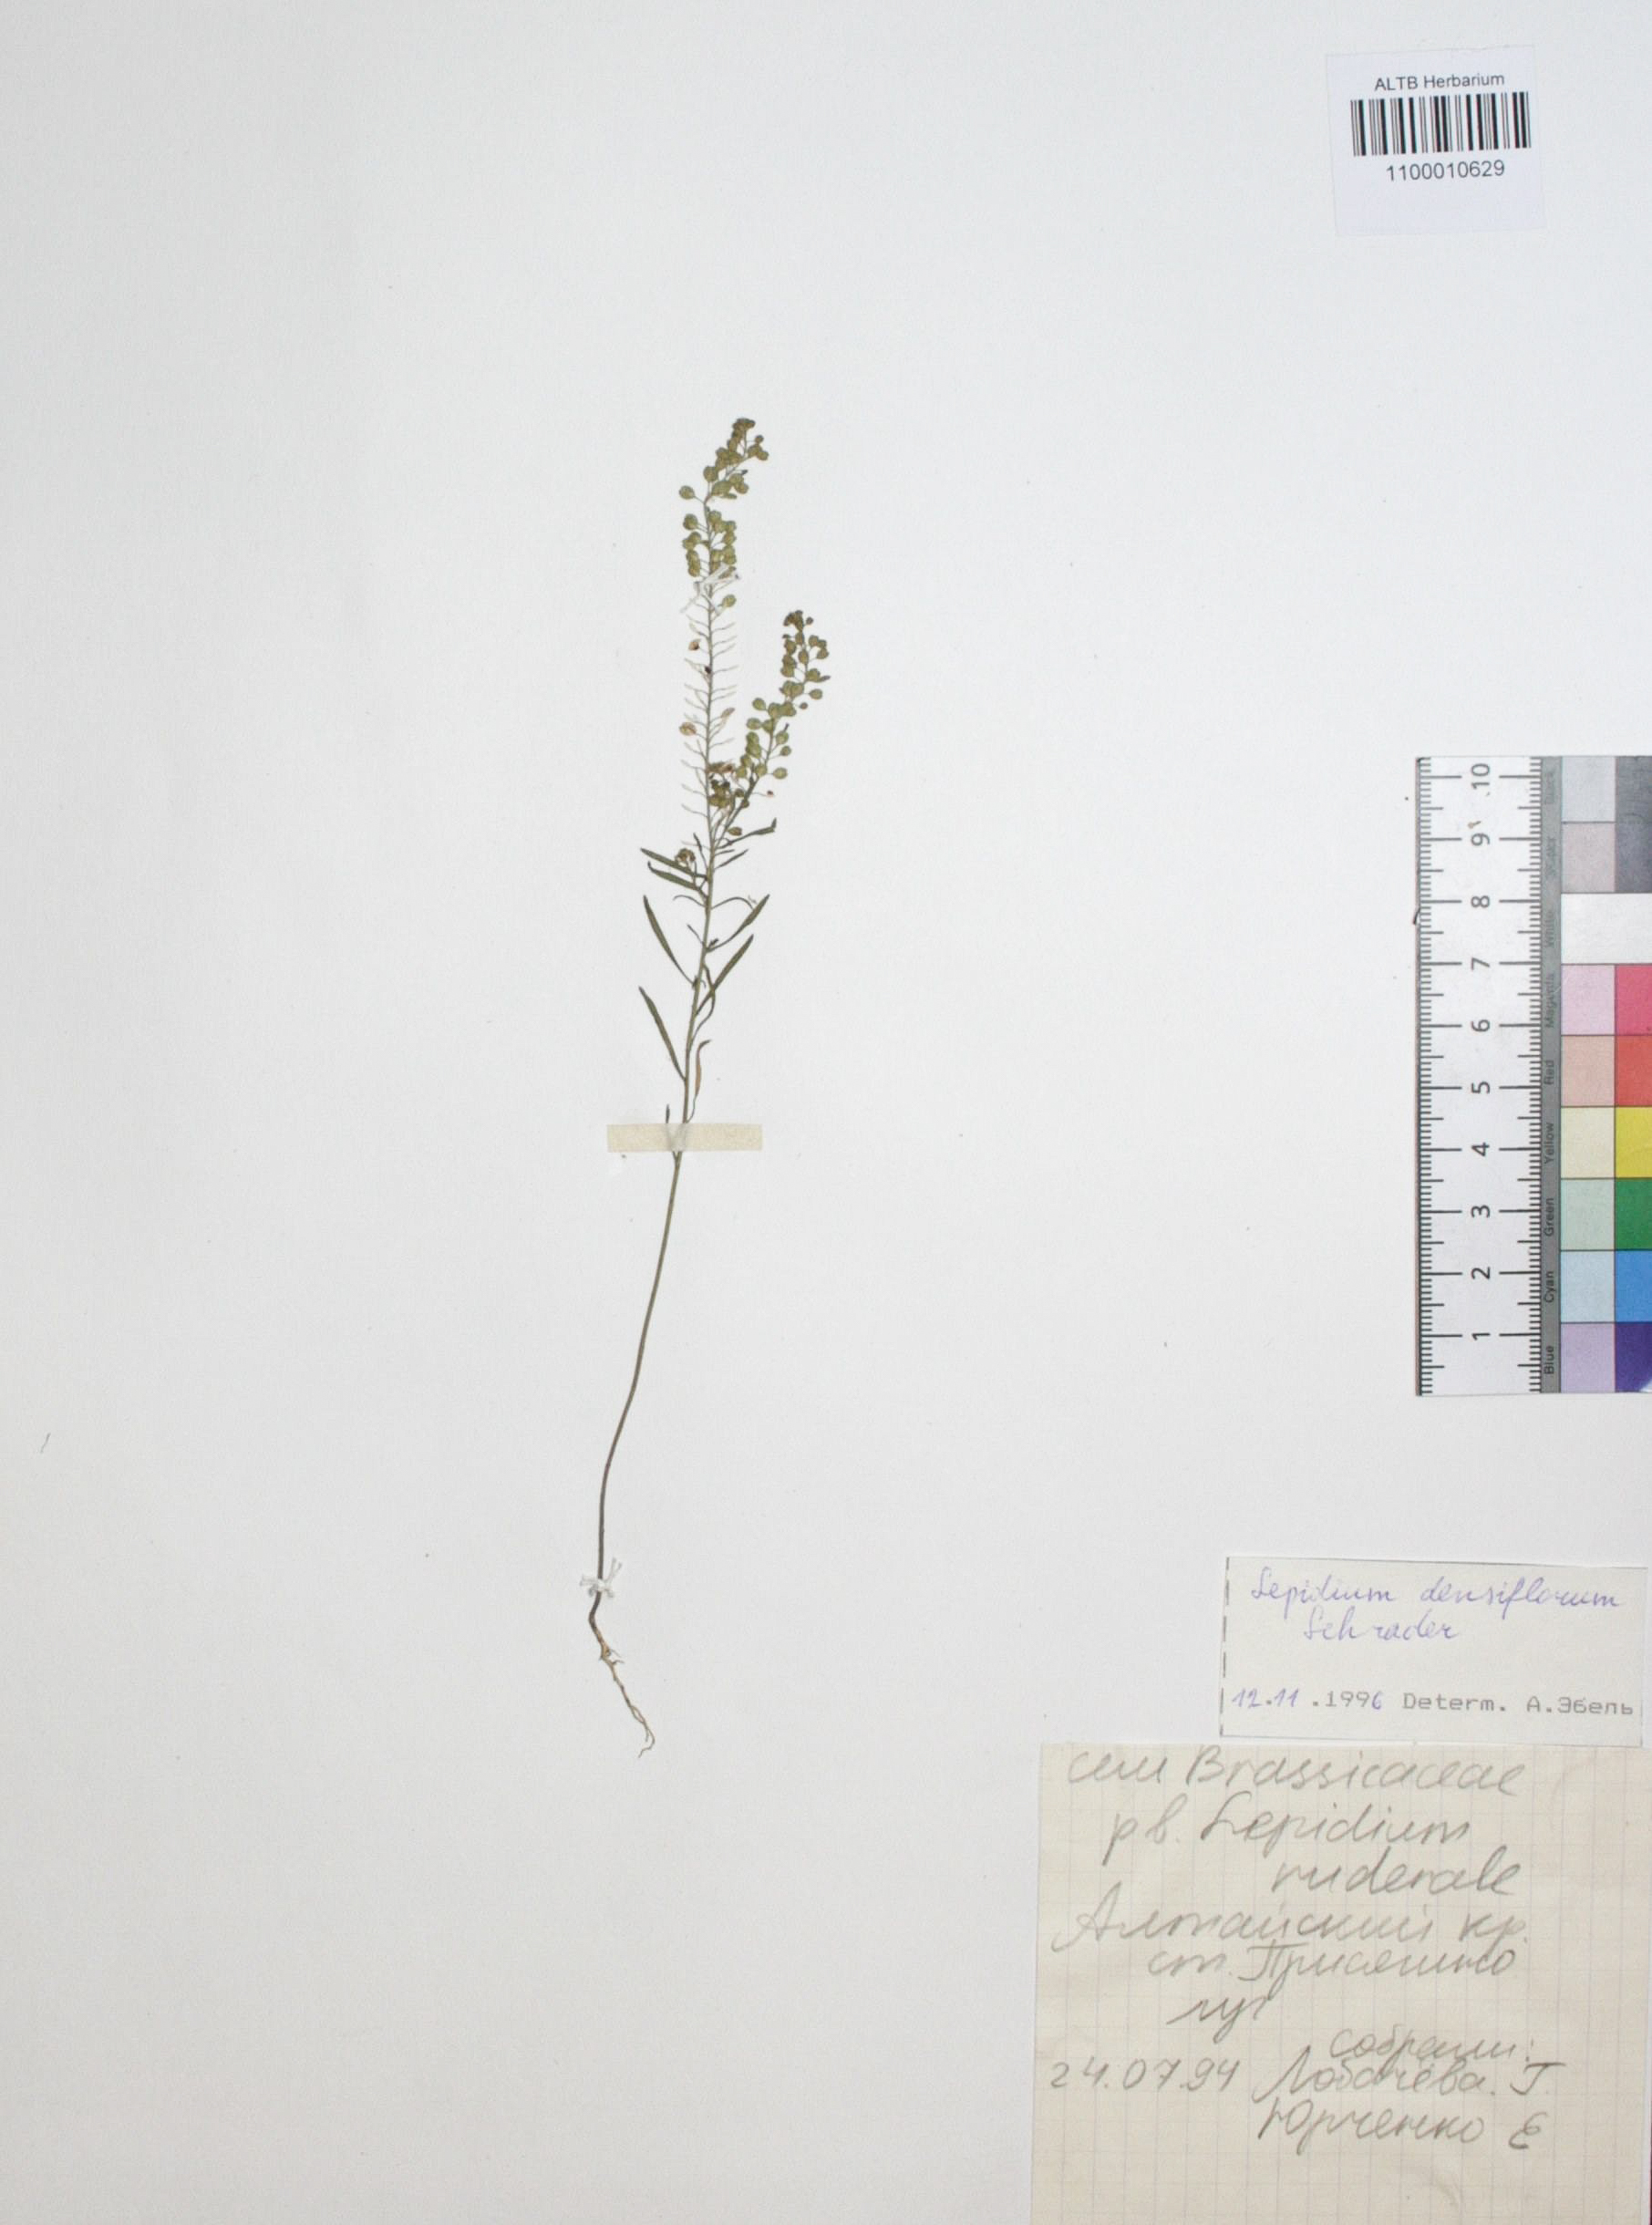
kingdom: Plantae
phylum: Tracheophyta
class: Magnoliopsida
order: Brassicales
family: Brassicaceae
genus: Lepidium
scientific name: Lepidium densiflorum
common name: Miner's pepperwort
